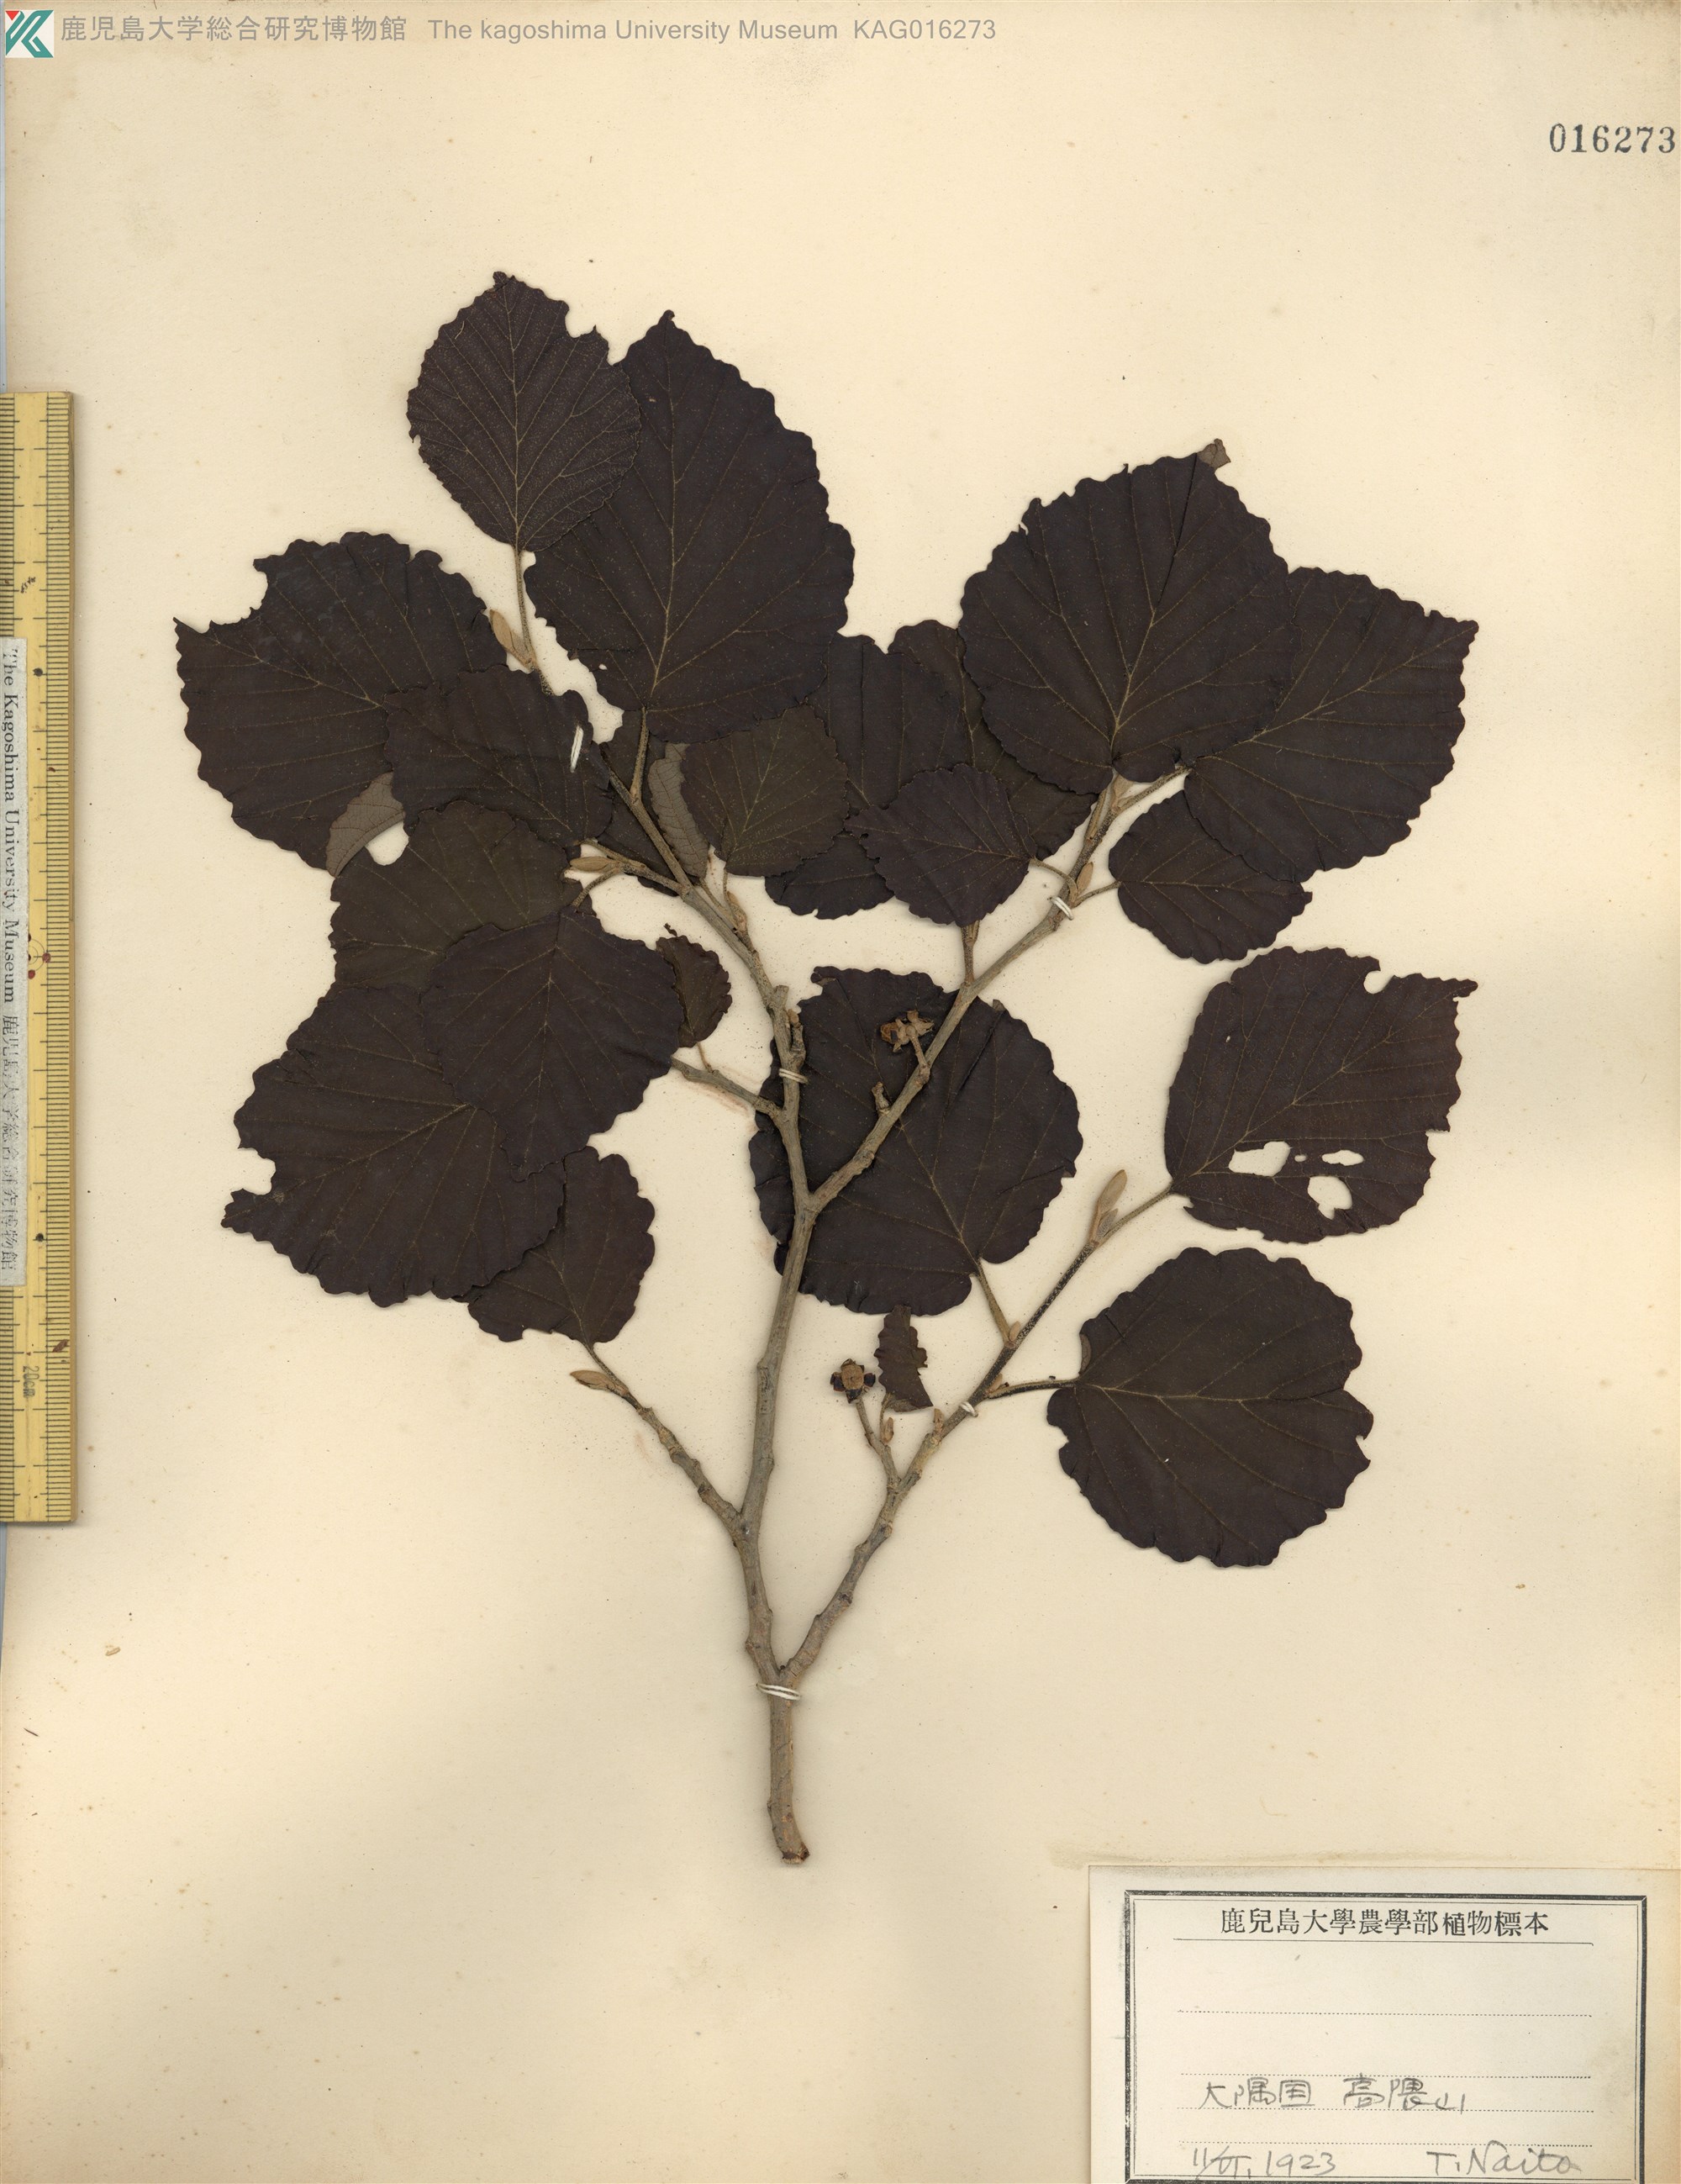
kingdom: Plantae
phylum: Tracheophyta
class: Magnoliopsida
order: Saxifragales
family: Hamamelidaceae
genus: Hamamelis
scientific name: Hamamelis japonica
